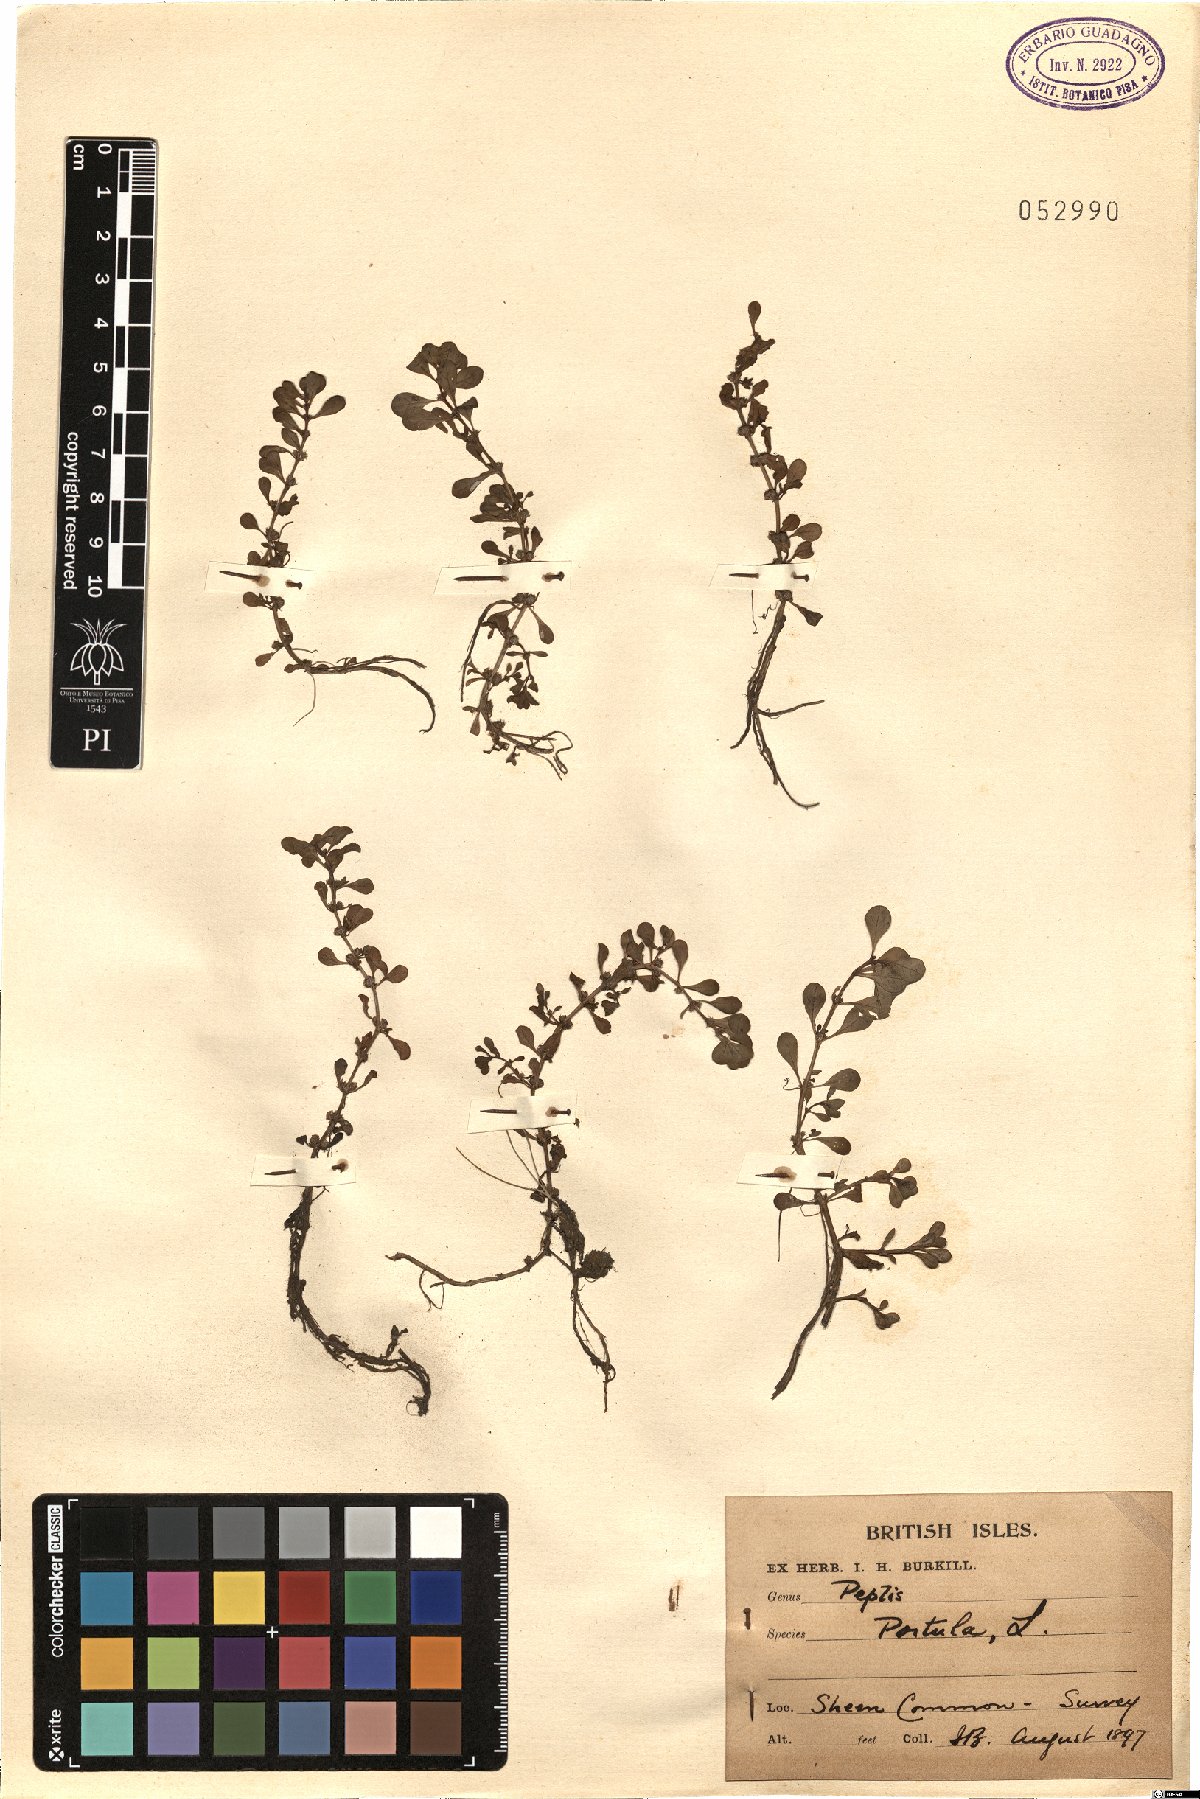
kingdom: Plantae
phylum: Tracheophyta
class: Magnoliopsida
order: Myrtales
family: Lythraceae
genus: Lythrum
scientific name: Lythrum portula
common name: Water purslane
